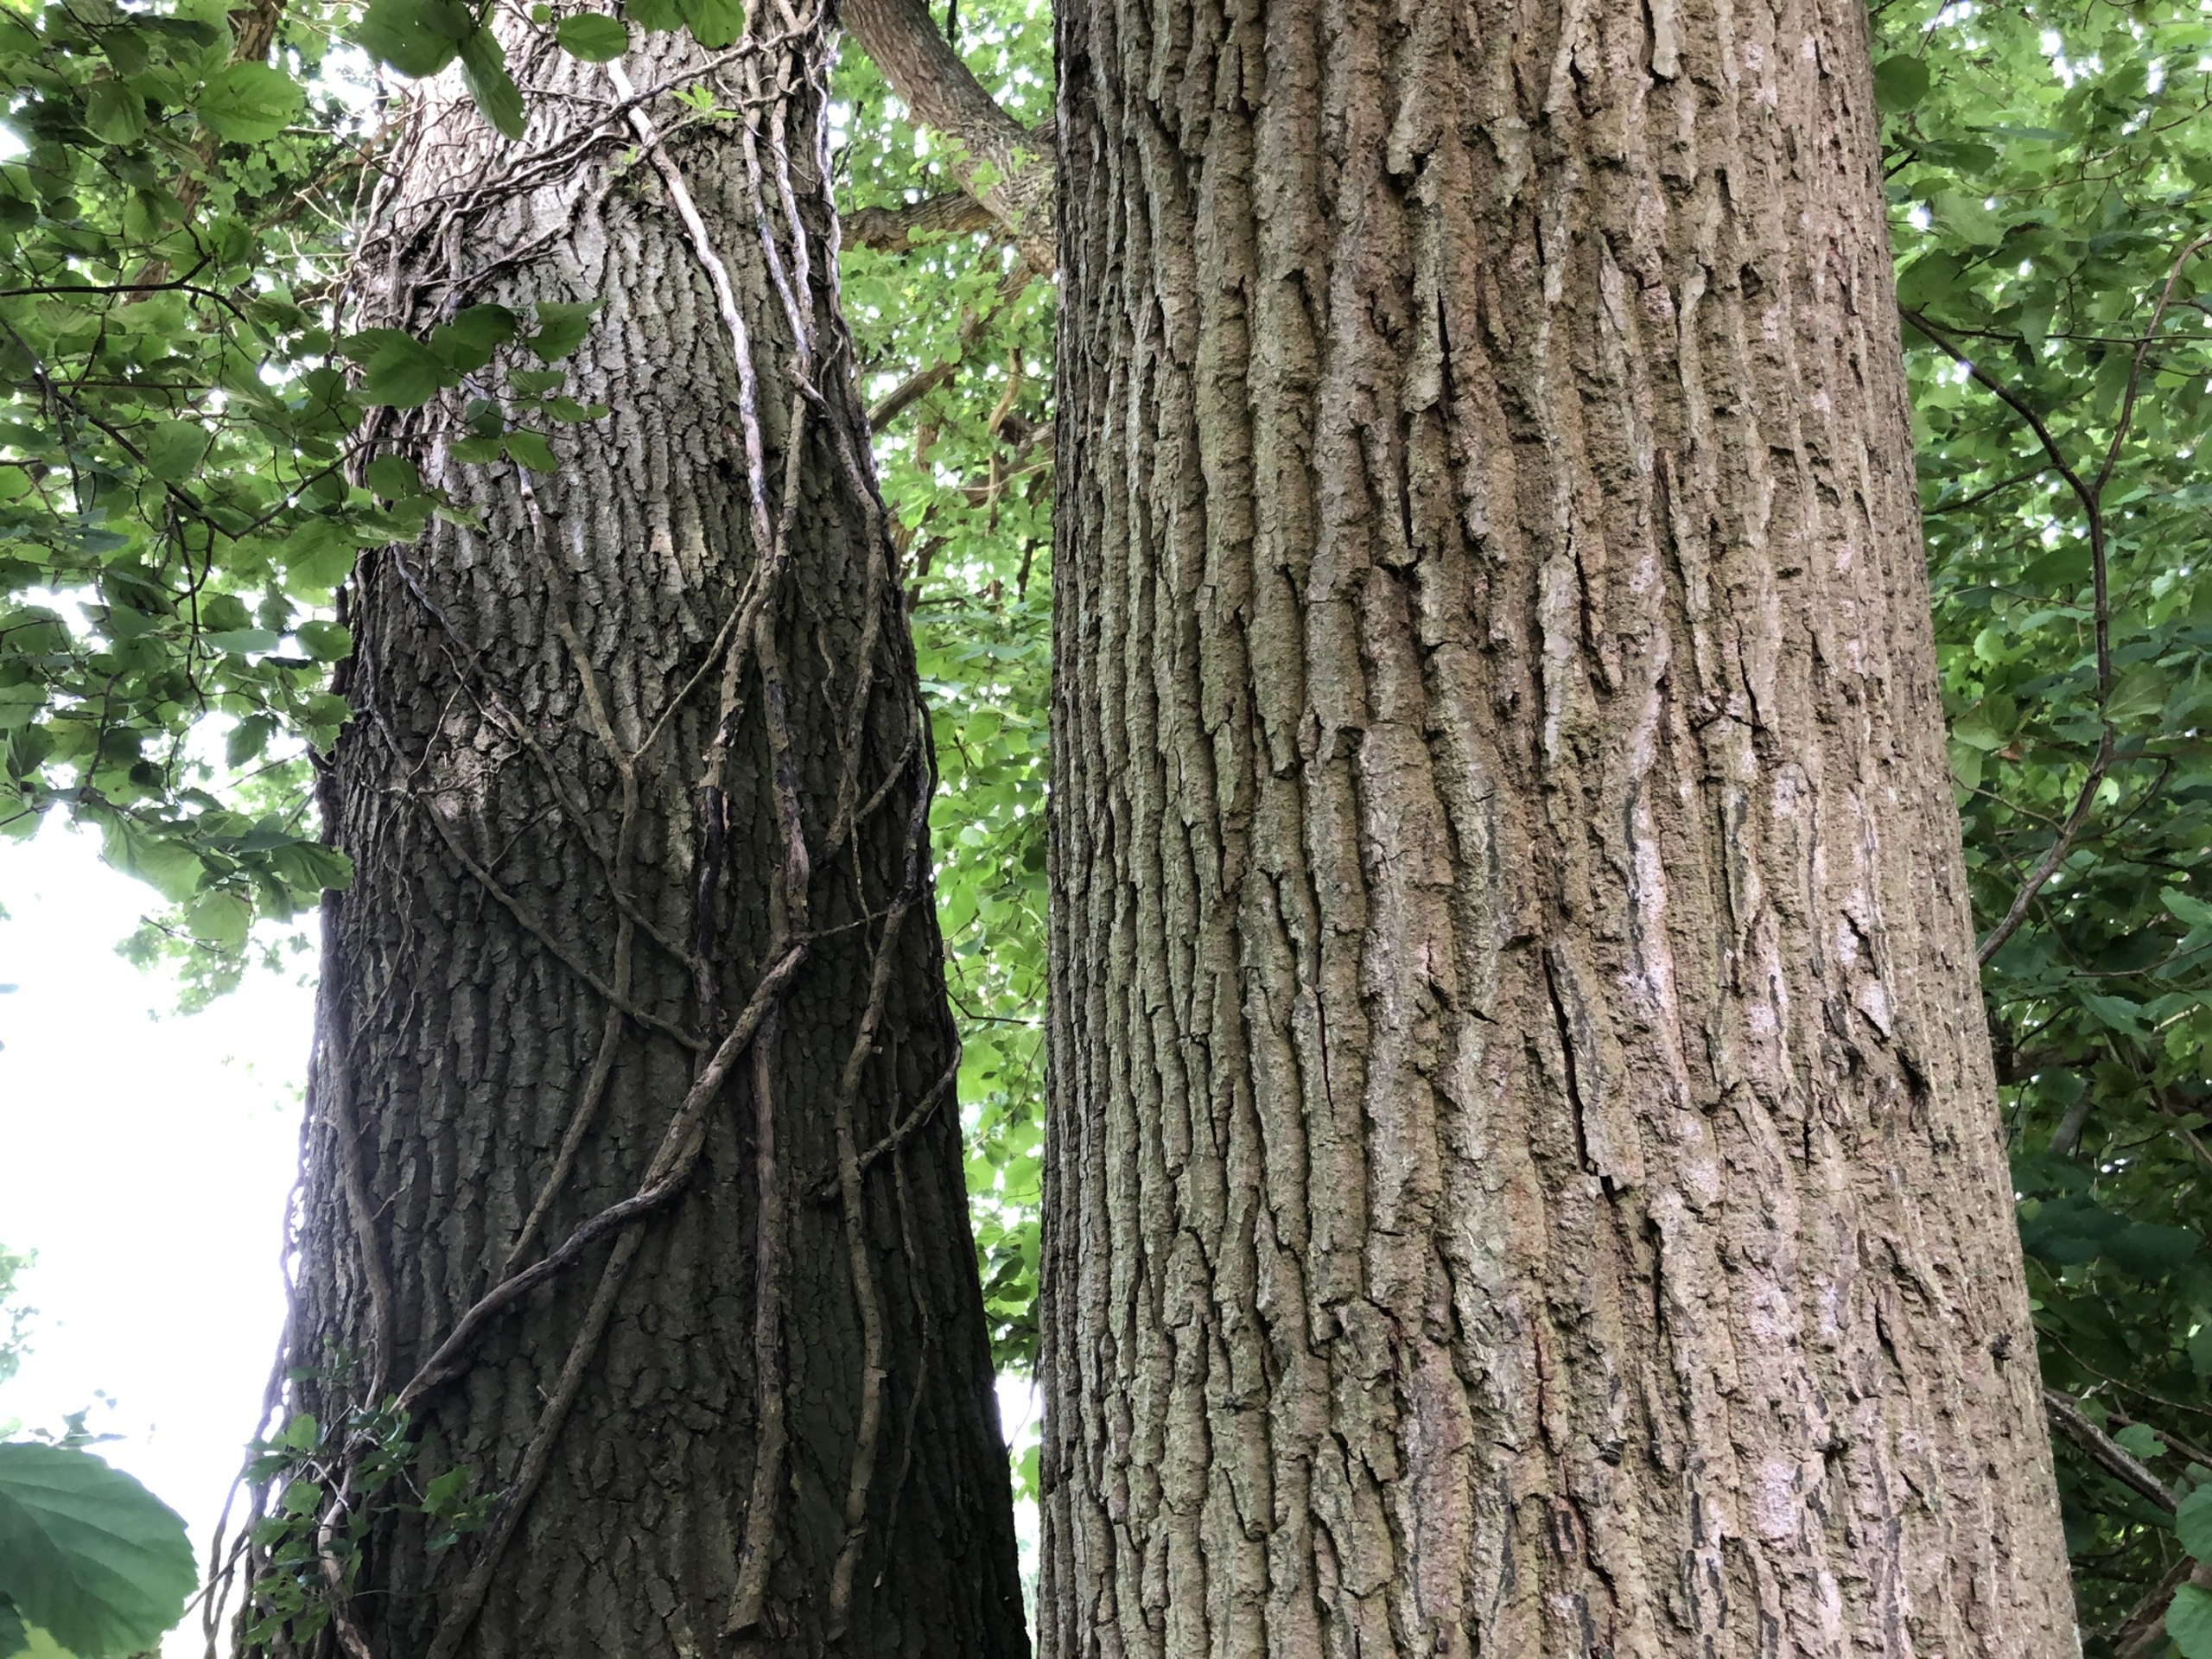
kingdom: Plantae
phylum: Tracheophyta
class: Magnoliopsida
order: Fagales
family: Fagaceae
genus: Quercus
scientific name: Quercus robur
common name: Stilk-eg/almindelig eg
